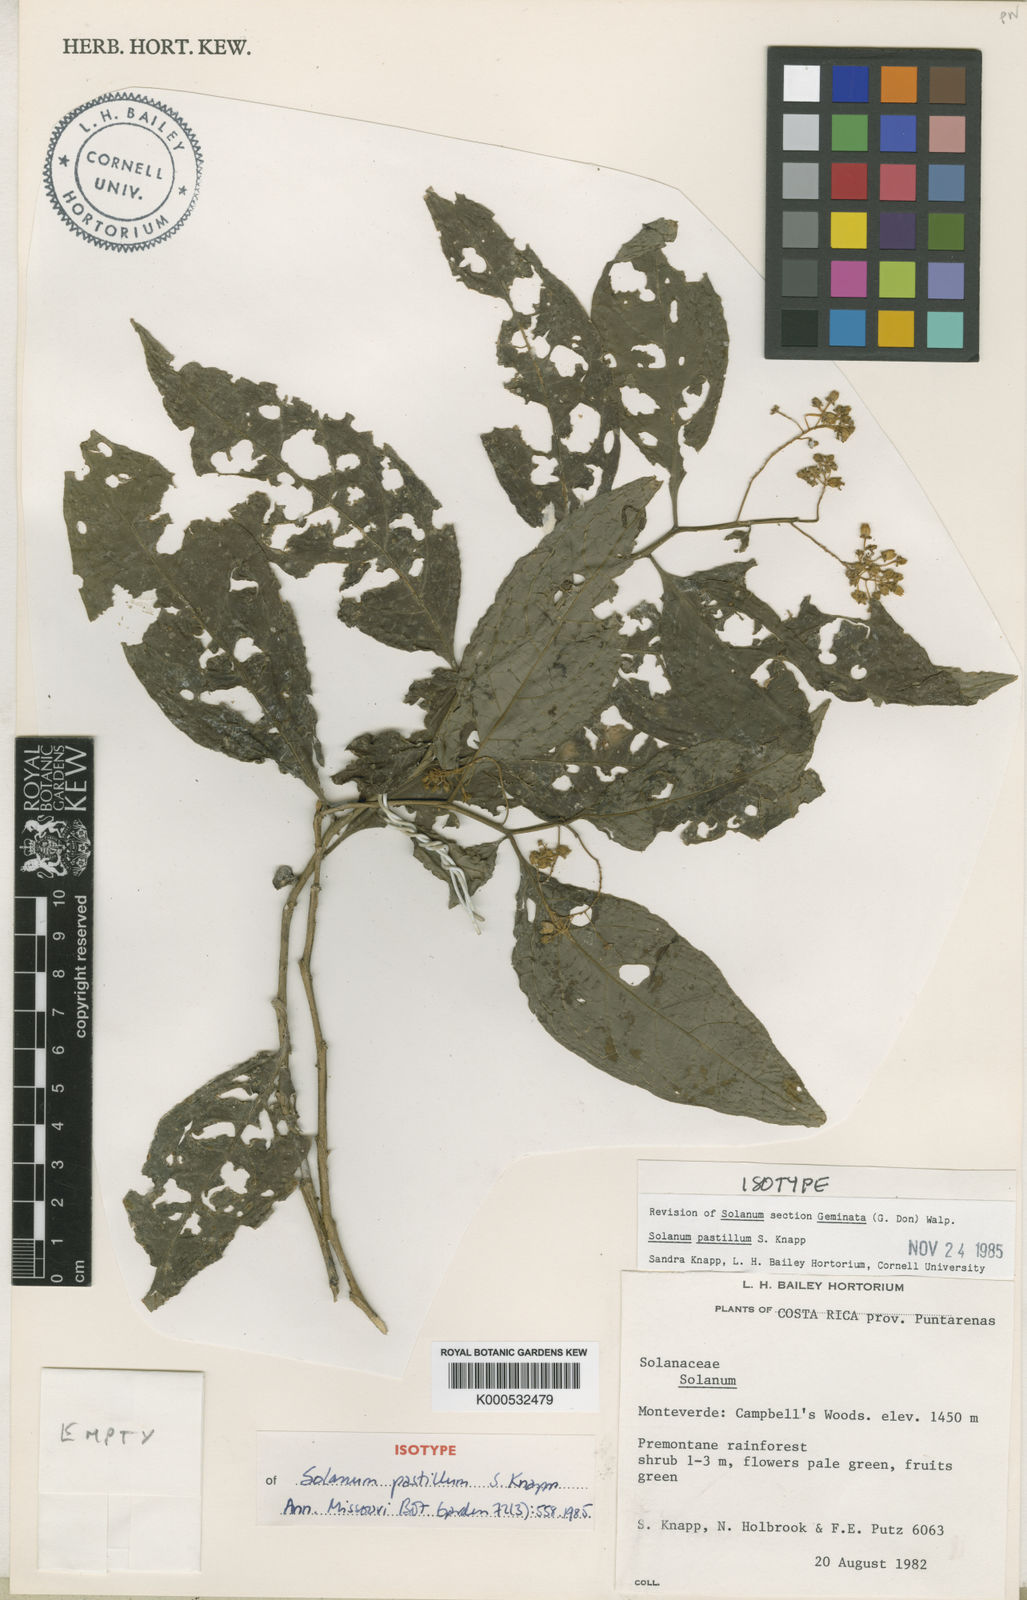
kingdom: Plantae
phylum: Tracheophyta
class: Magnoliopsida
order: Solanales
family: Solanaceae
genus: Solanum
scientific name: Solanum pastillum
